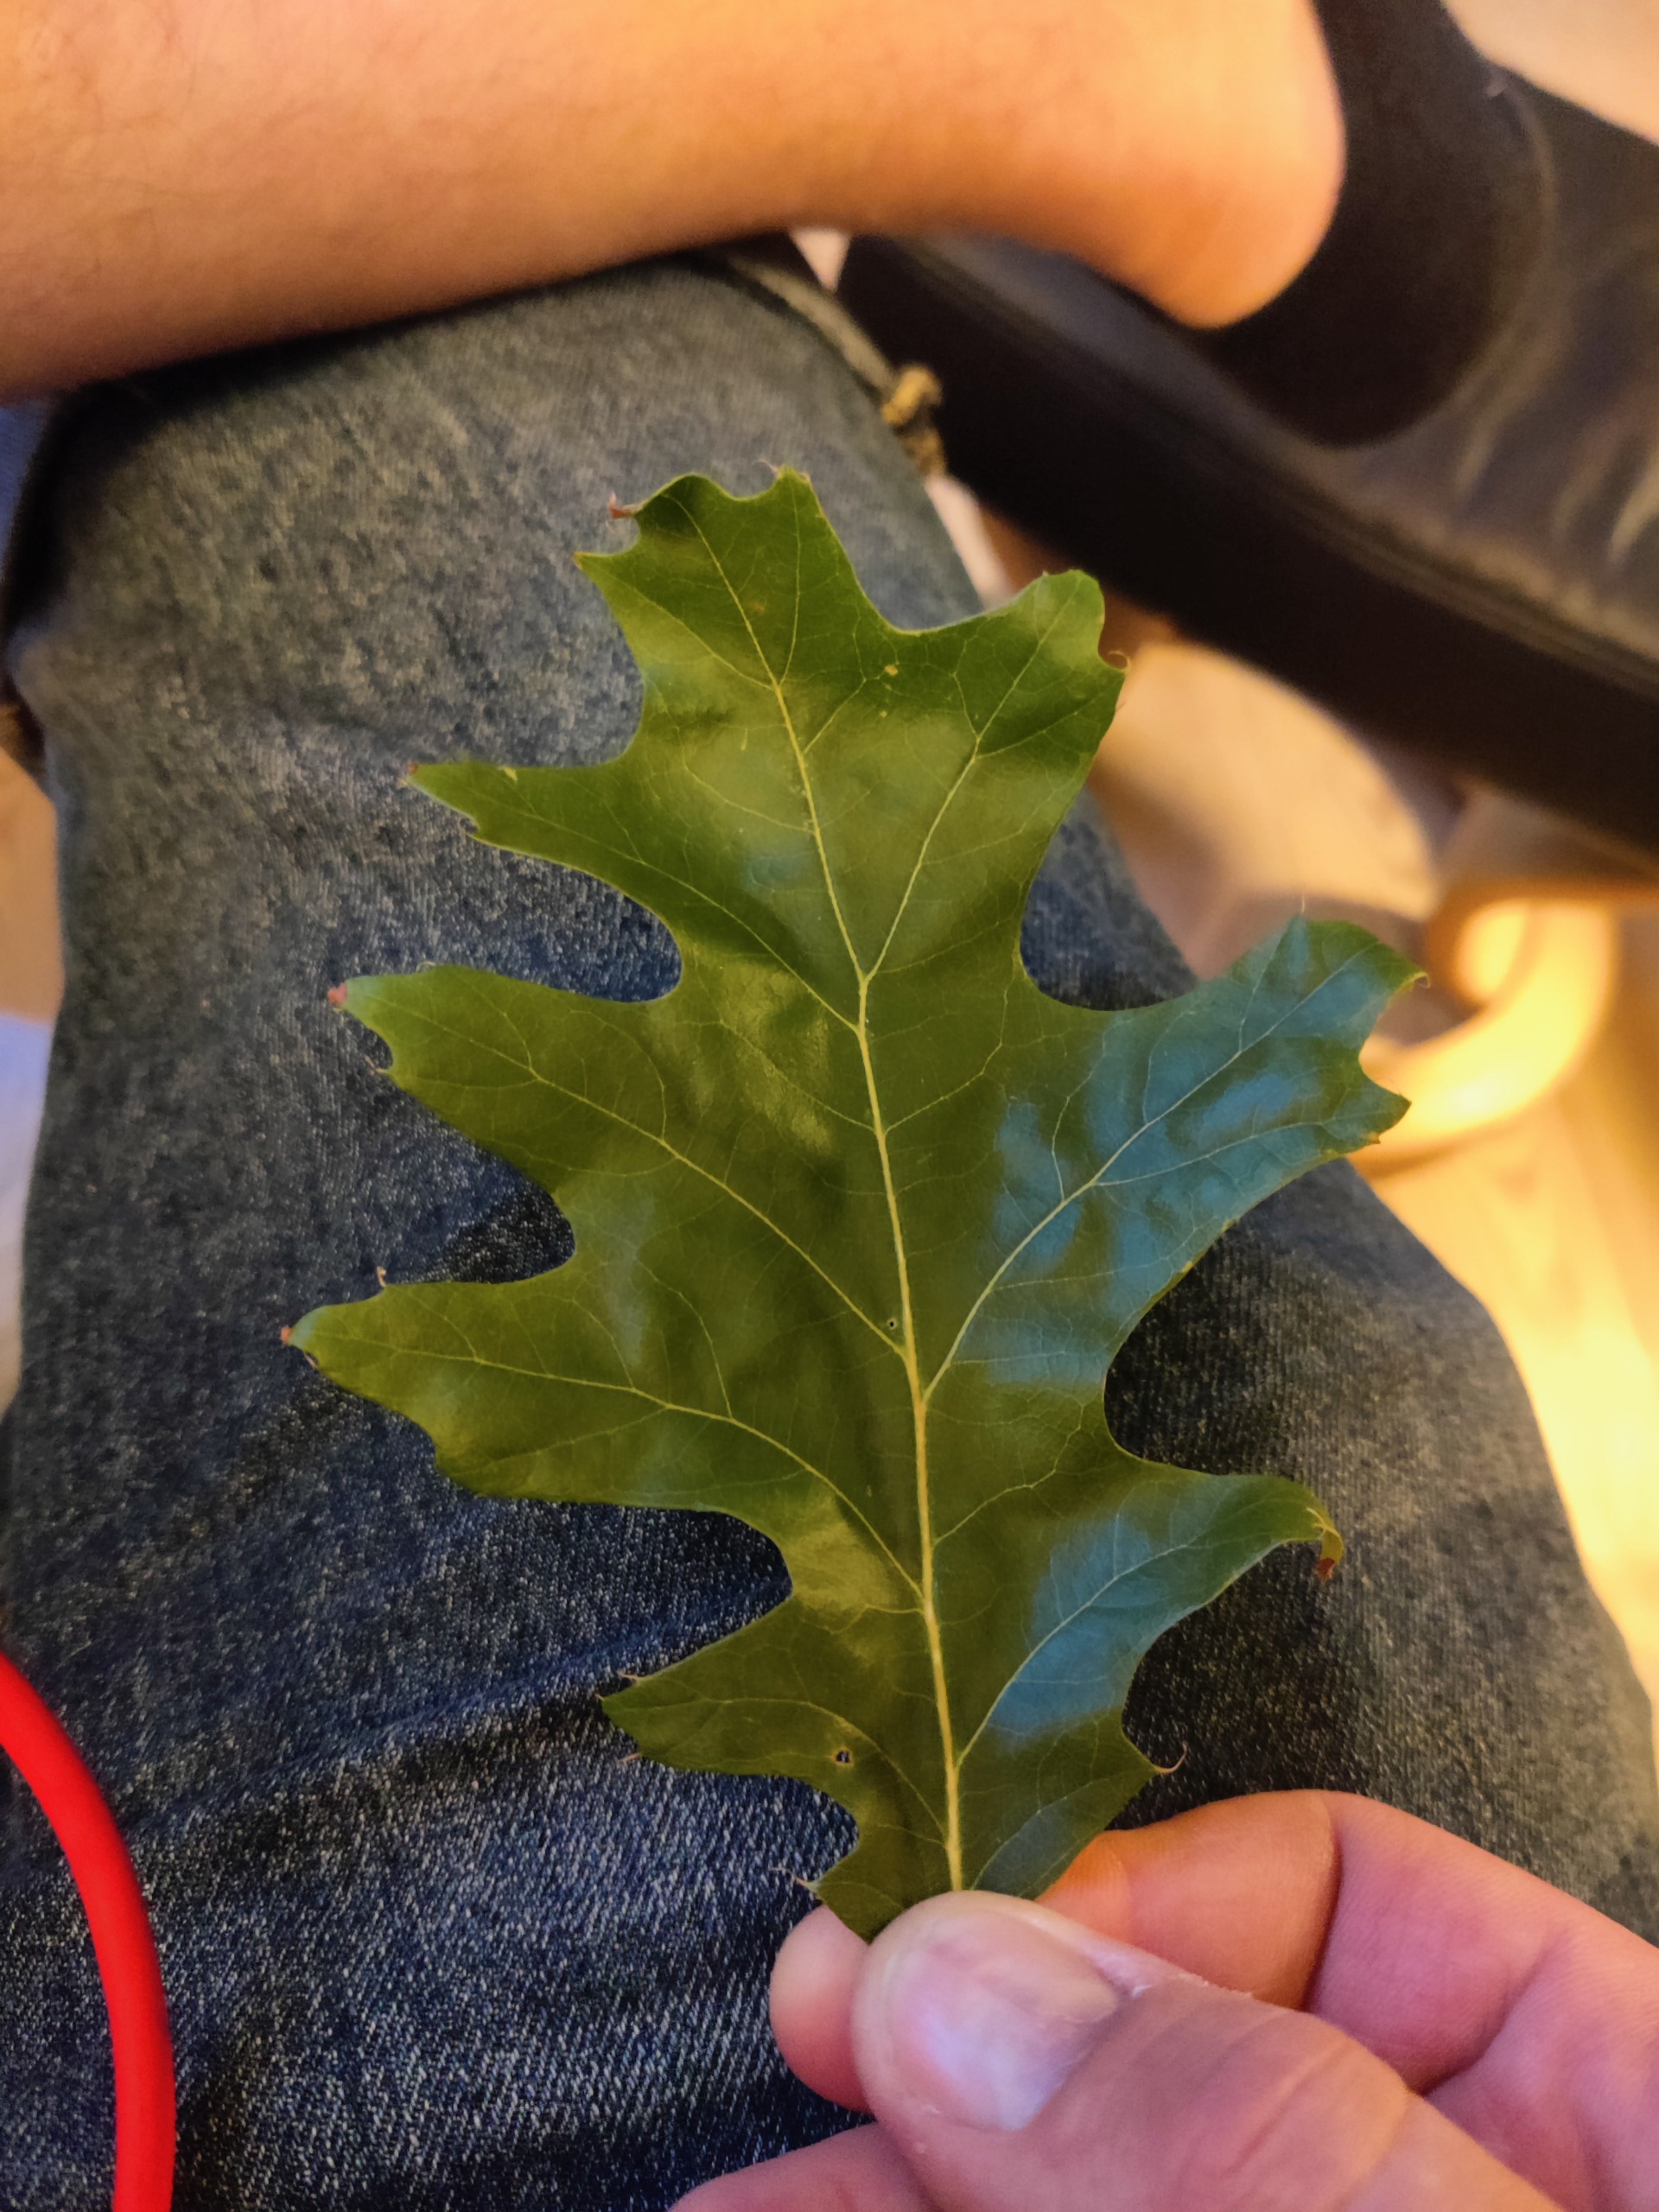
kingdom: Plantae
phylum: Tracheophyta
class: Magnoliopsida
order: Fagales
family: Fagaceae
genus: Quercus
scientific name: Quercus rubra
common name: Rød-eg
